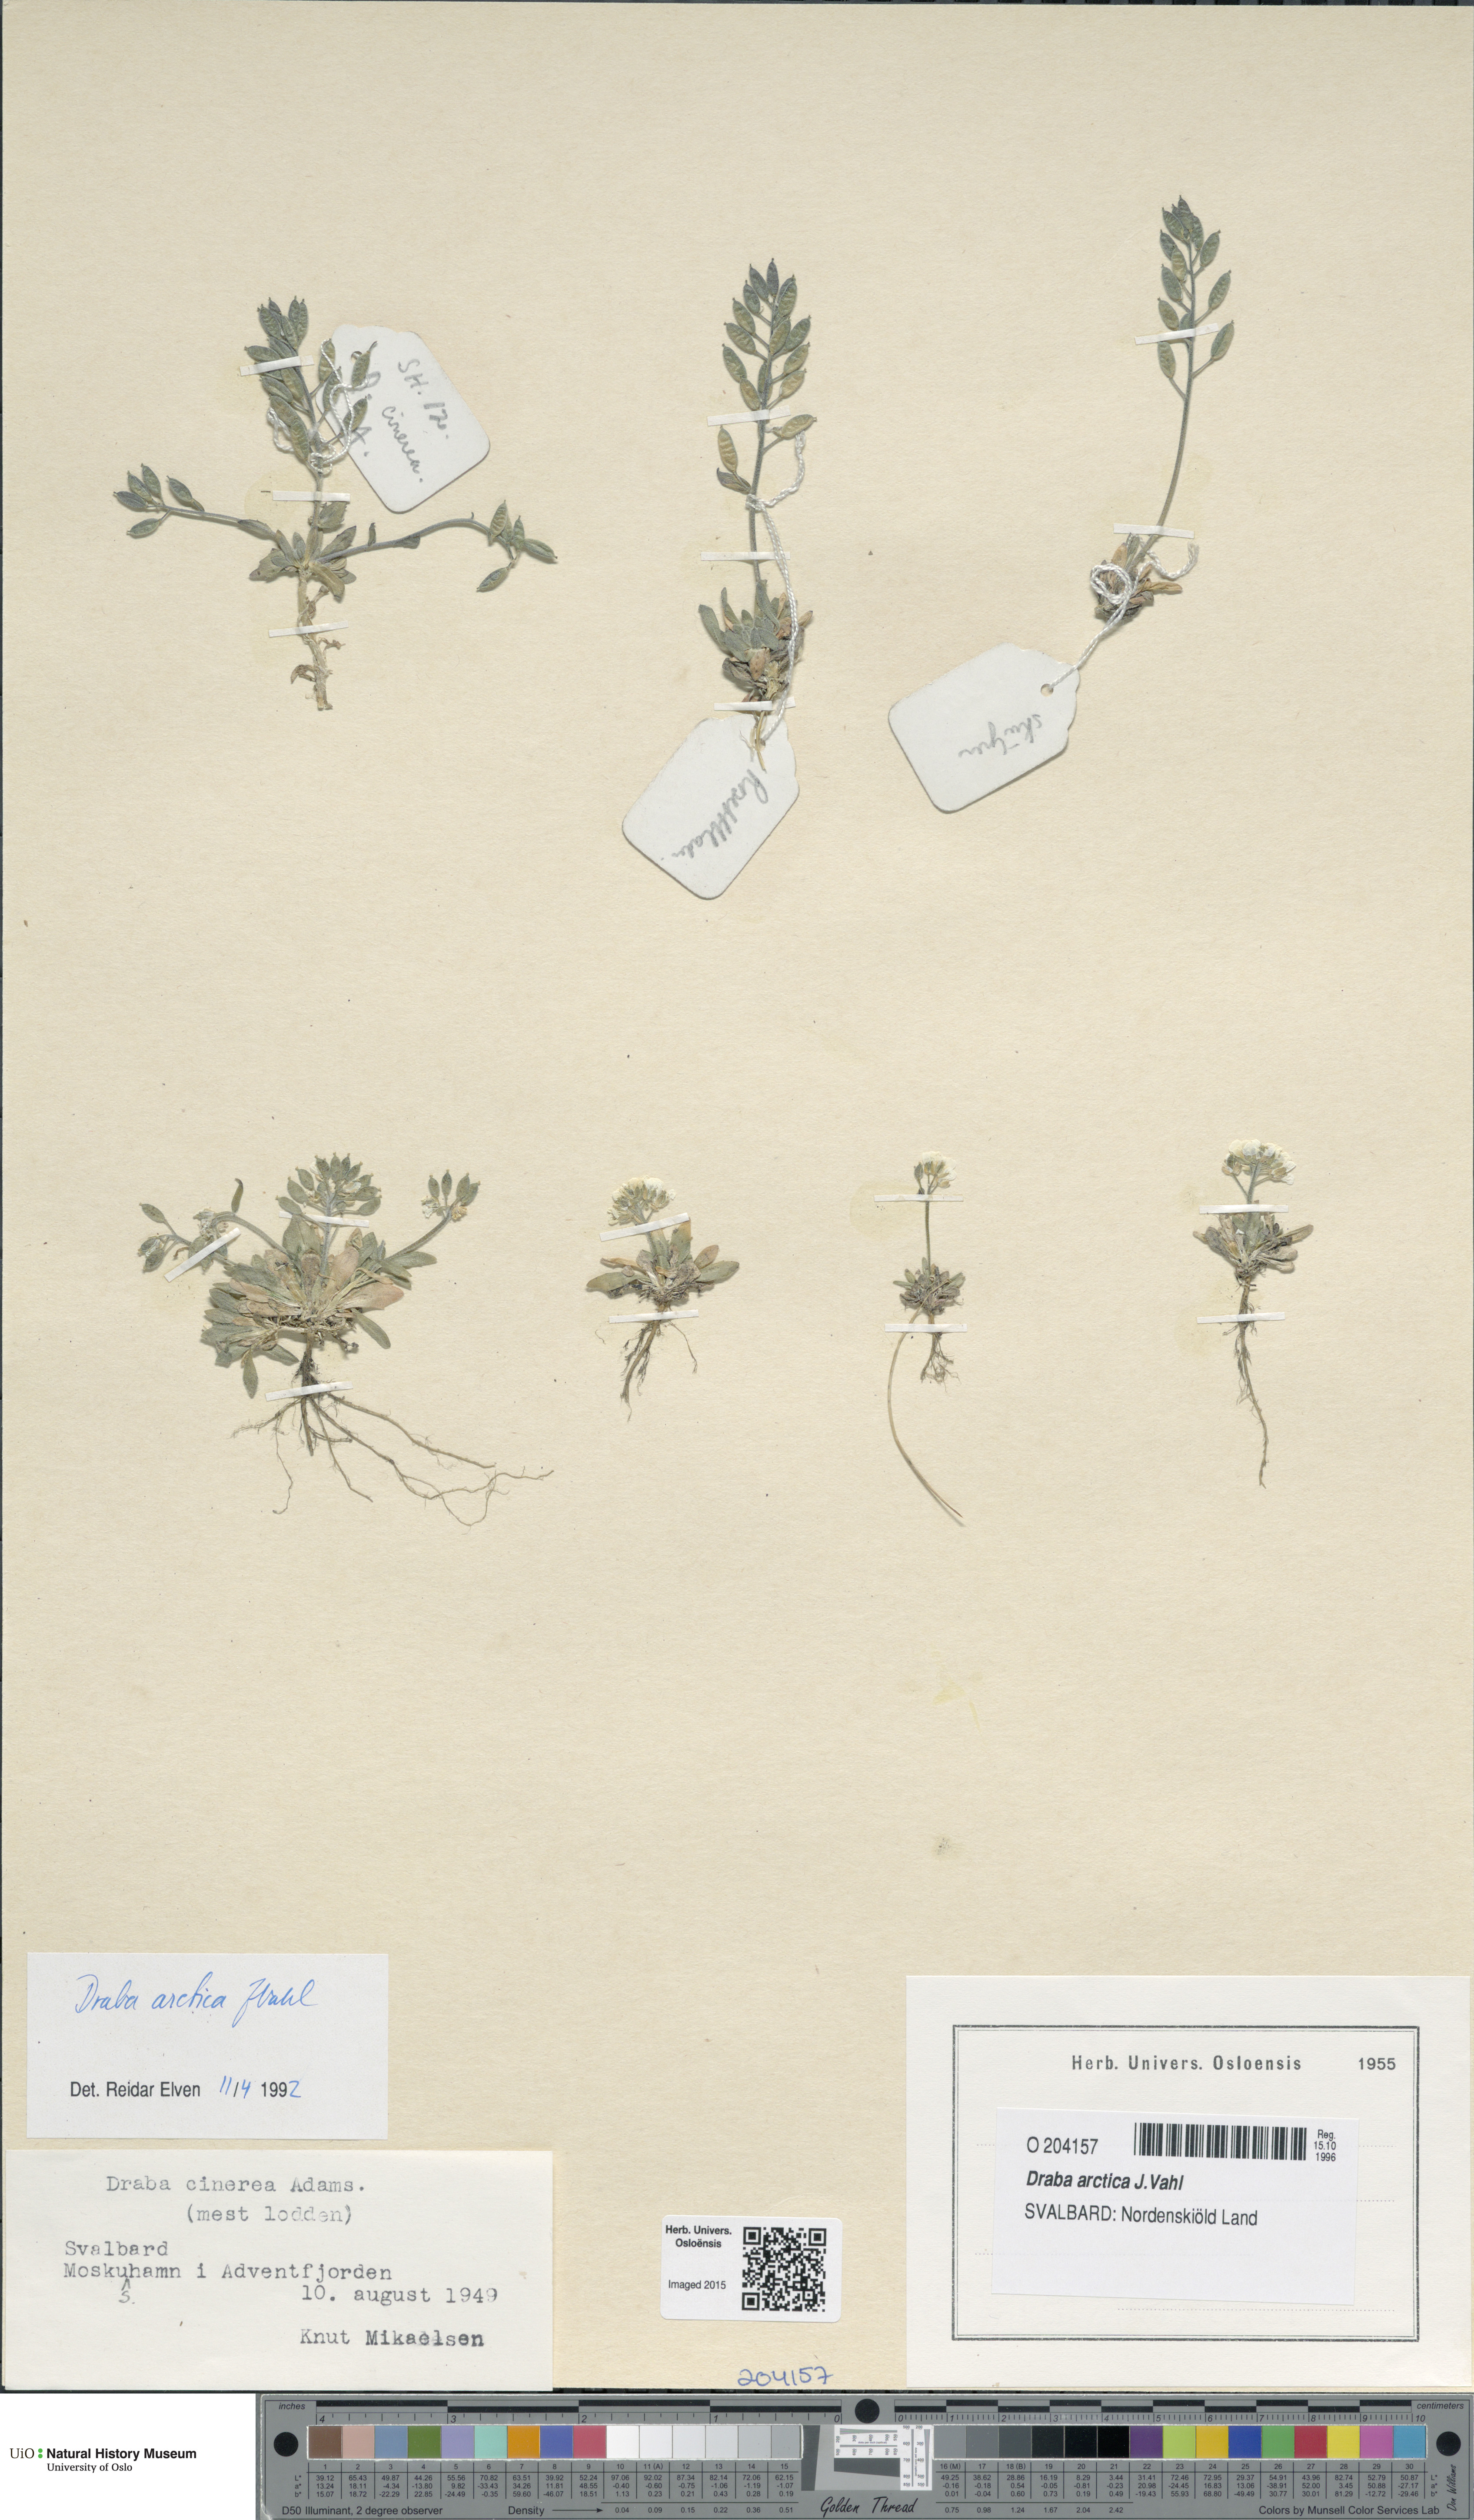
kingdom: Plantae
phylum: Tracheophyta
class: Magnoliopsida
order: Brassicales
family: Brassicaceae
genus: Draba
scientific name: Draba arctica
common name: Arctic draba
